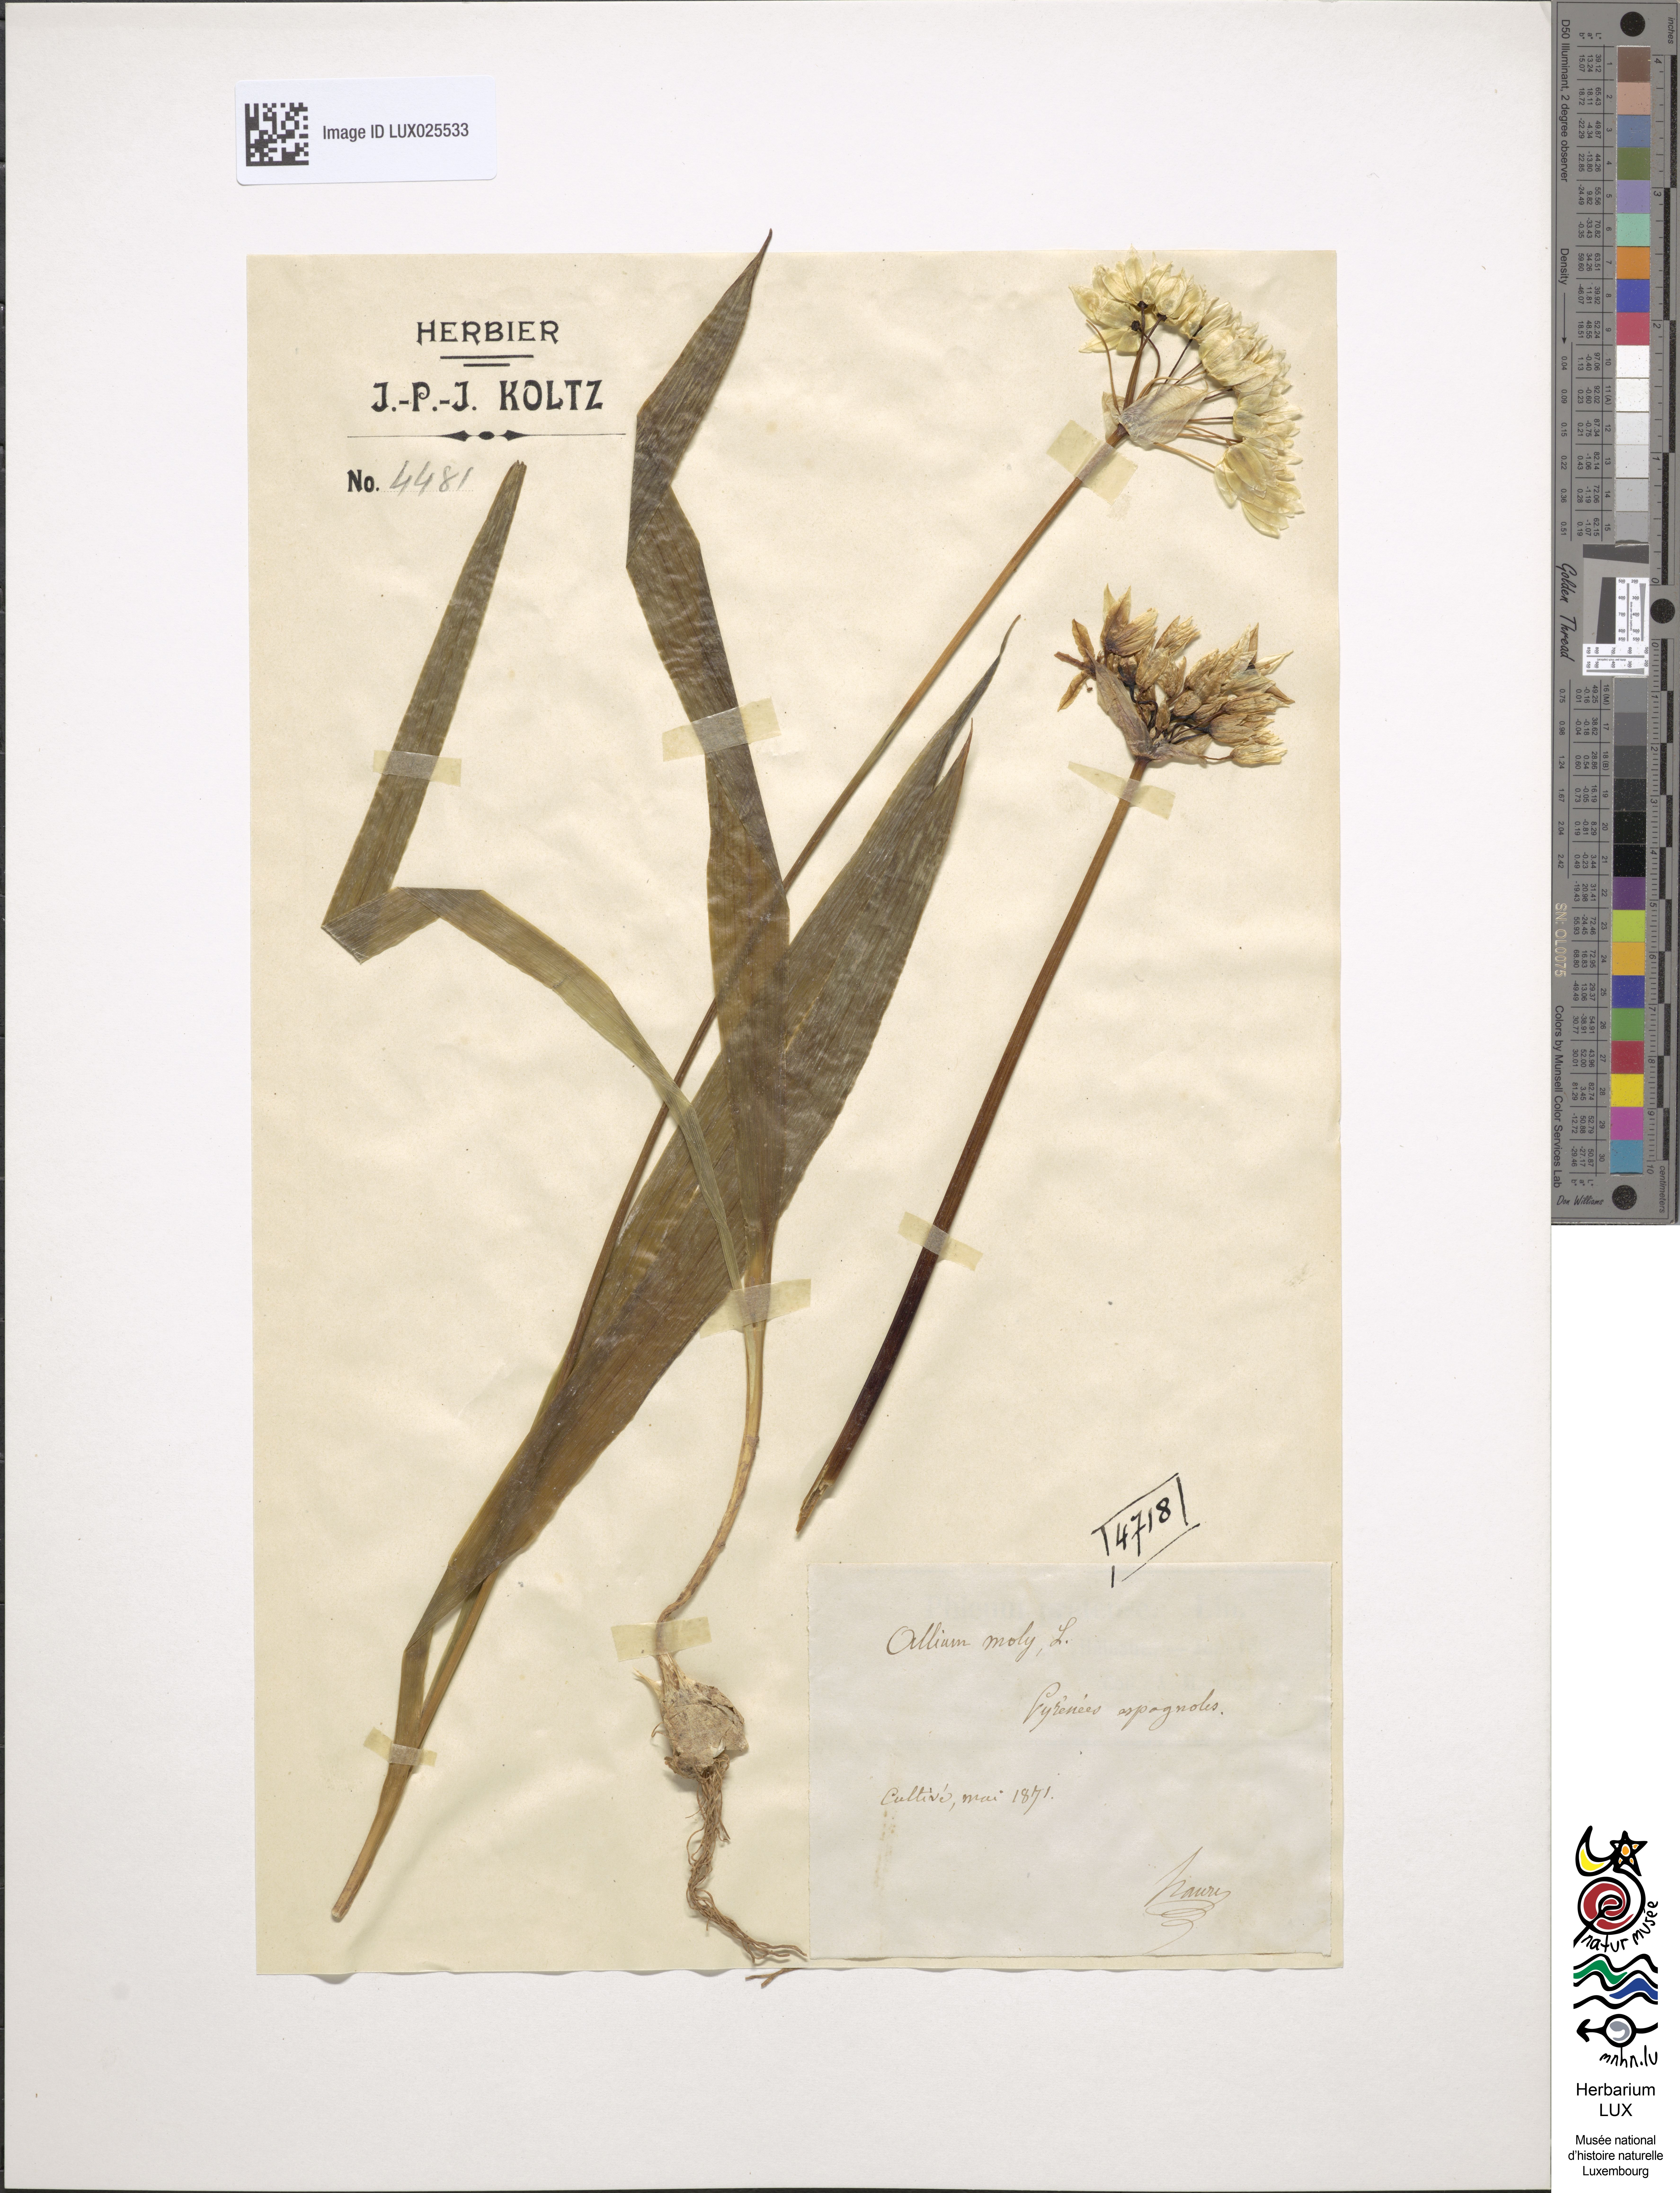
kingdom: Plantae
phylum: Tracheophyta
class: Liliopsida
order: Asparagales
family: Amaryllidaceae
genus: Allium
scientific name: Allium moly
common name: Yellow garlic
